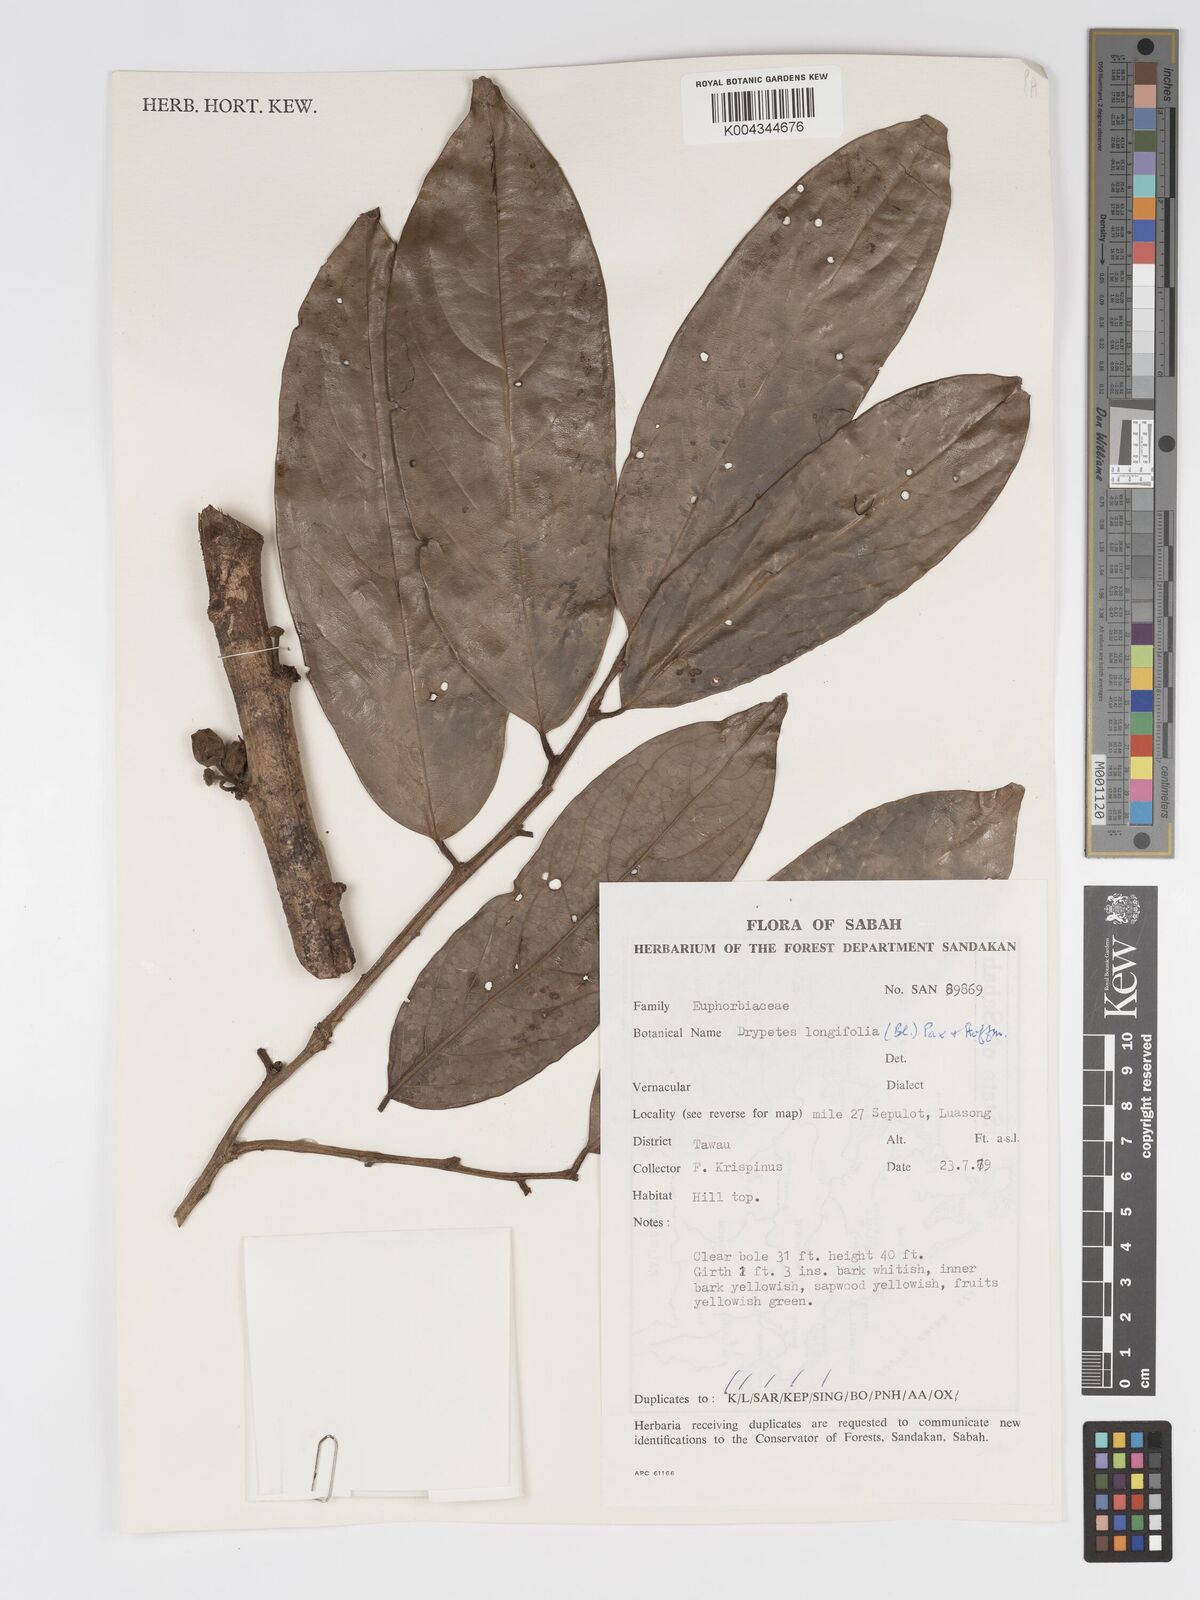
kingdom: Plantae
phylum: Tracheophyta
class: Magnoliopsida
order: Malpighiales
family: Putranjivaceae
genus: Drypetes
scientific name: Drypetes longifolia
